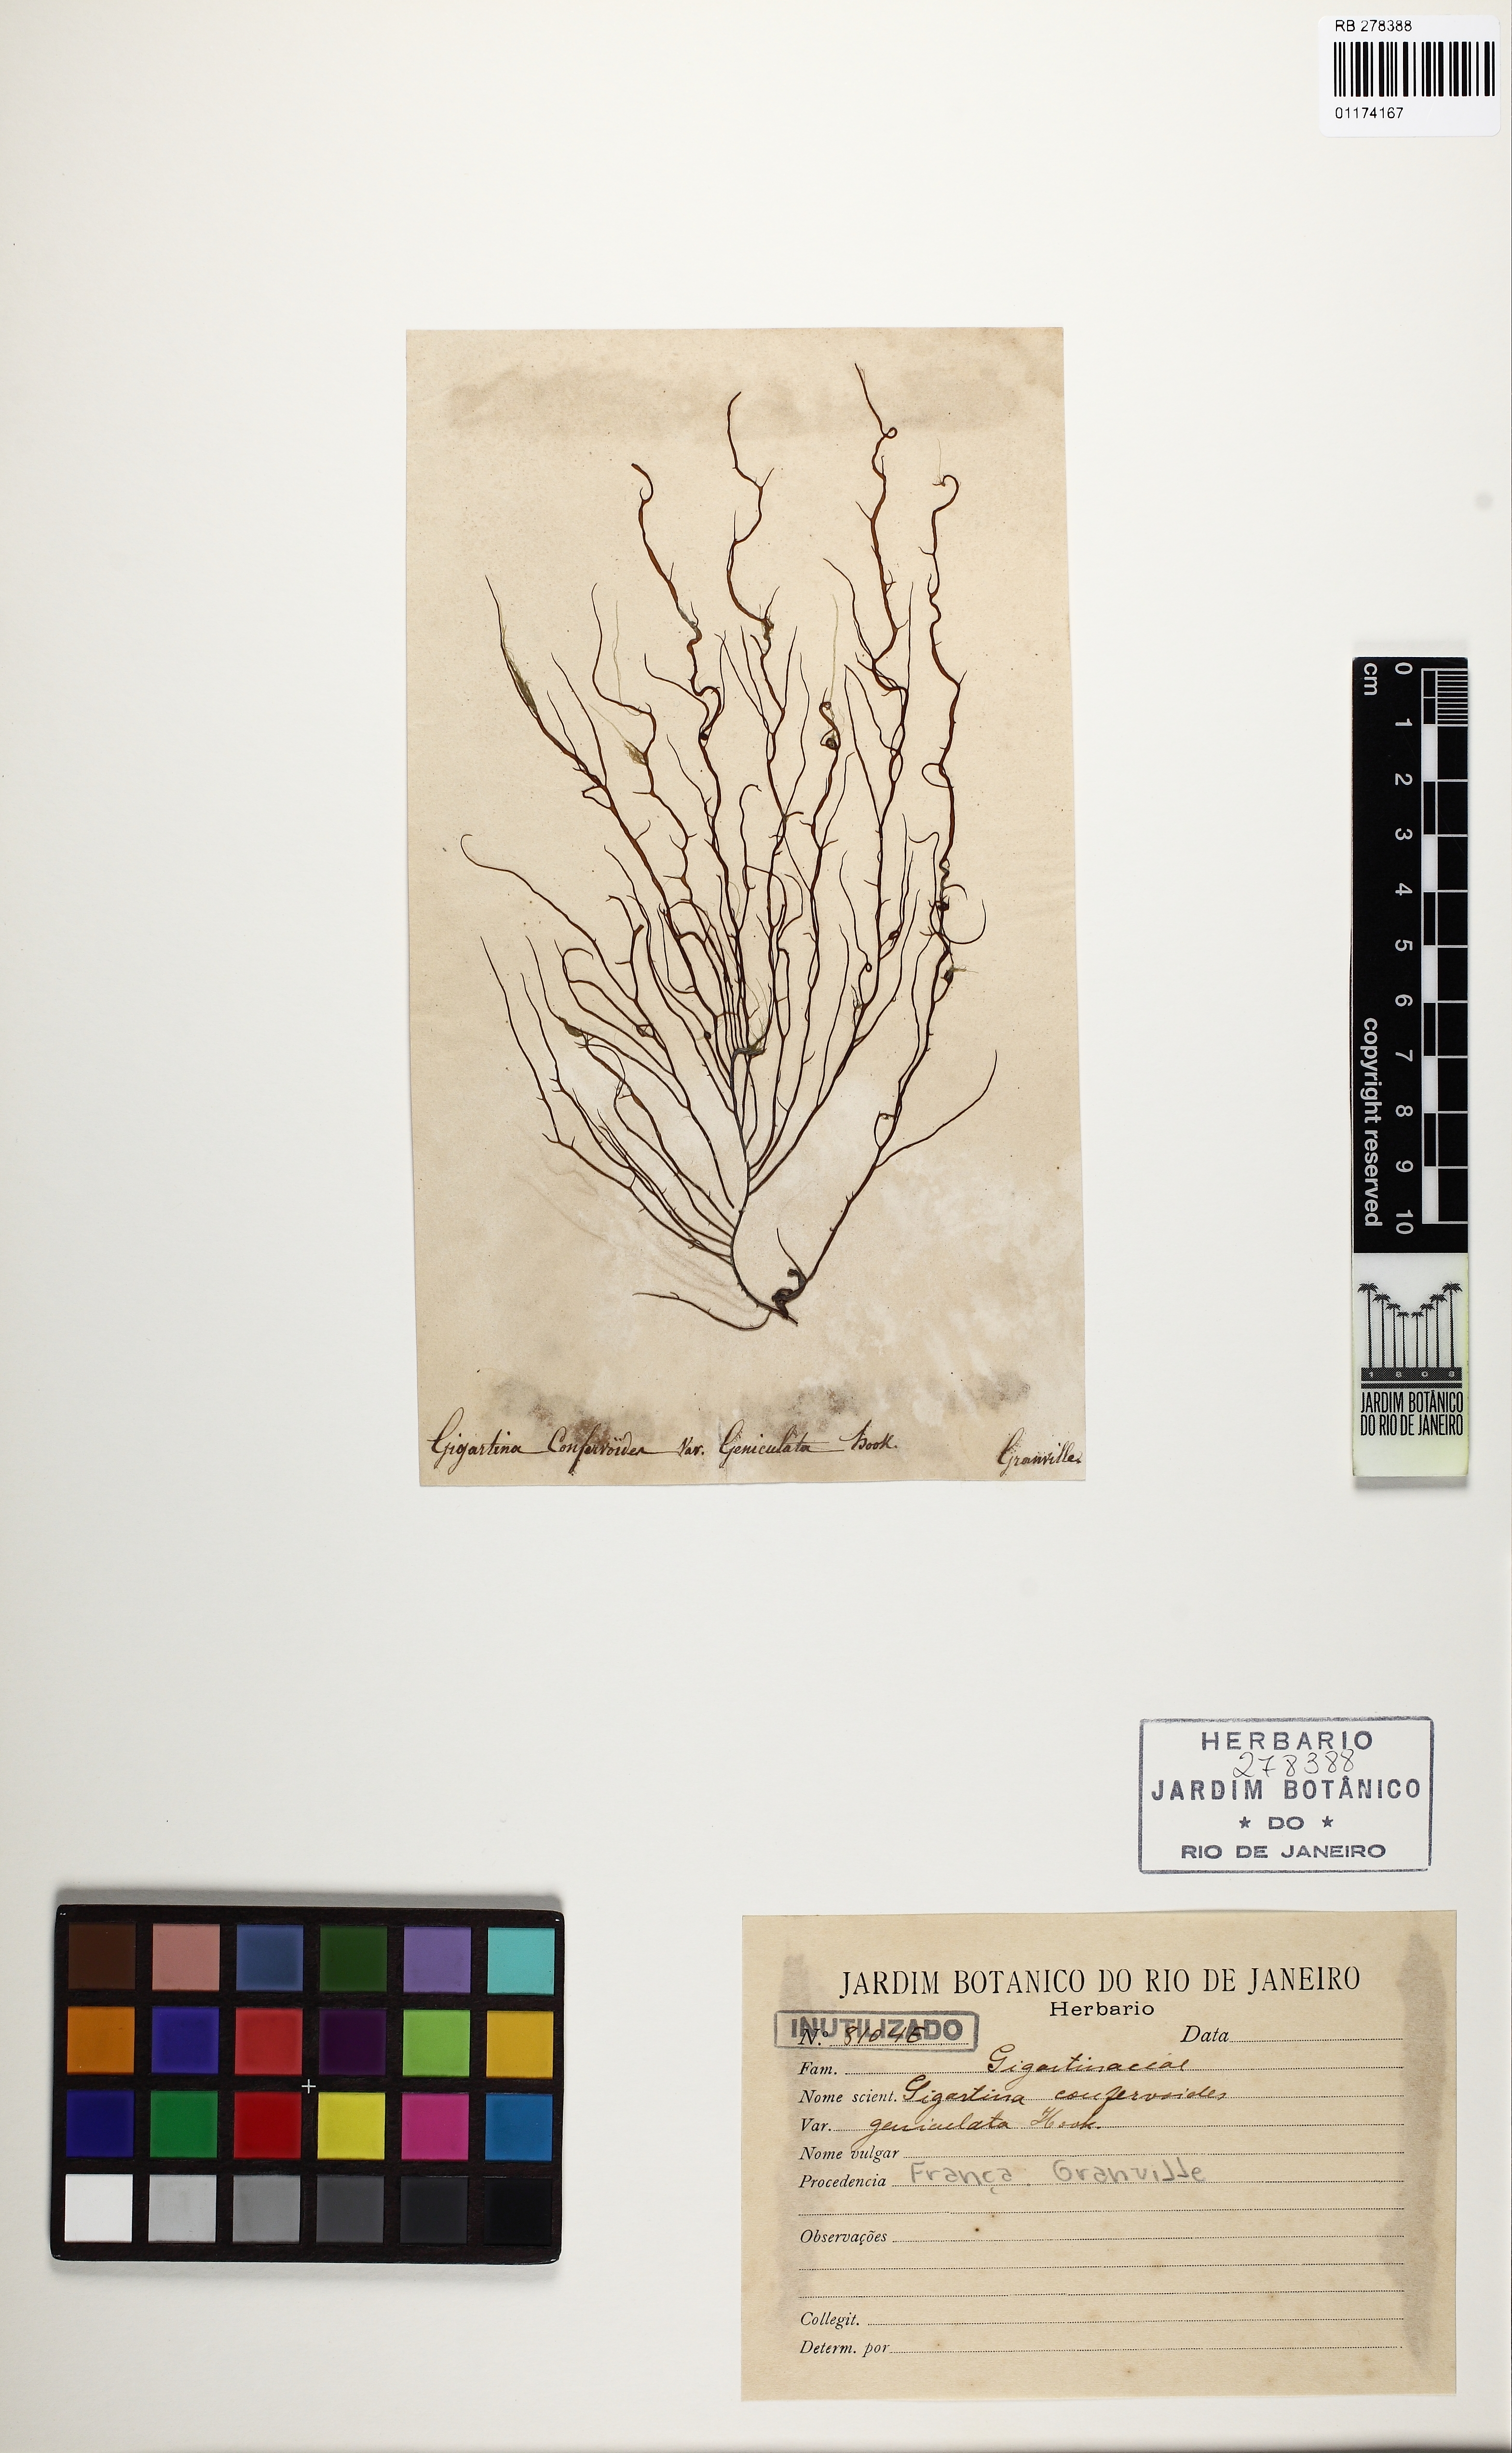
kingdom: Plantae
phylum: Rhodophyta
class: Florideophyceae
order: Gigartinales
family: Gigartinaceae
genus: Gigartina
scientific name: Gigartina
